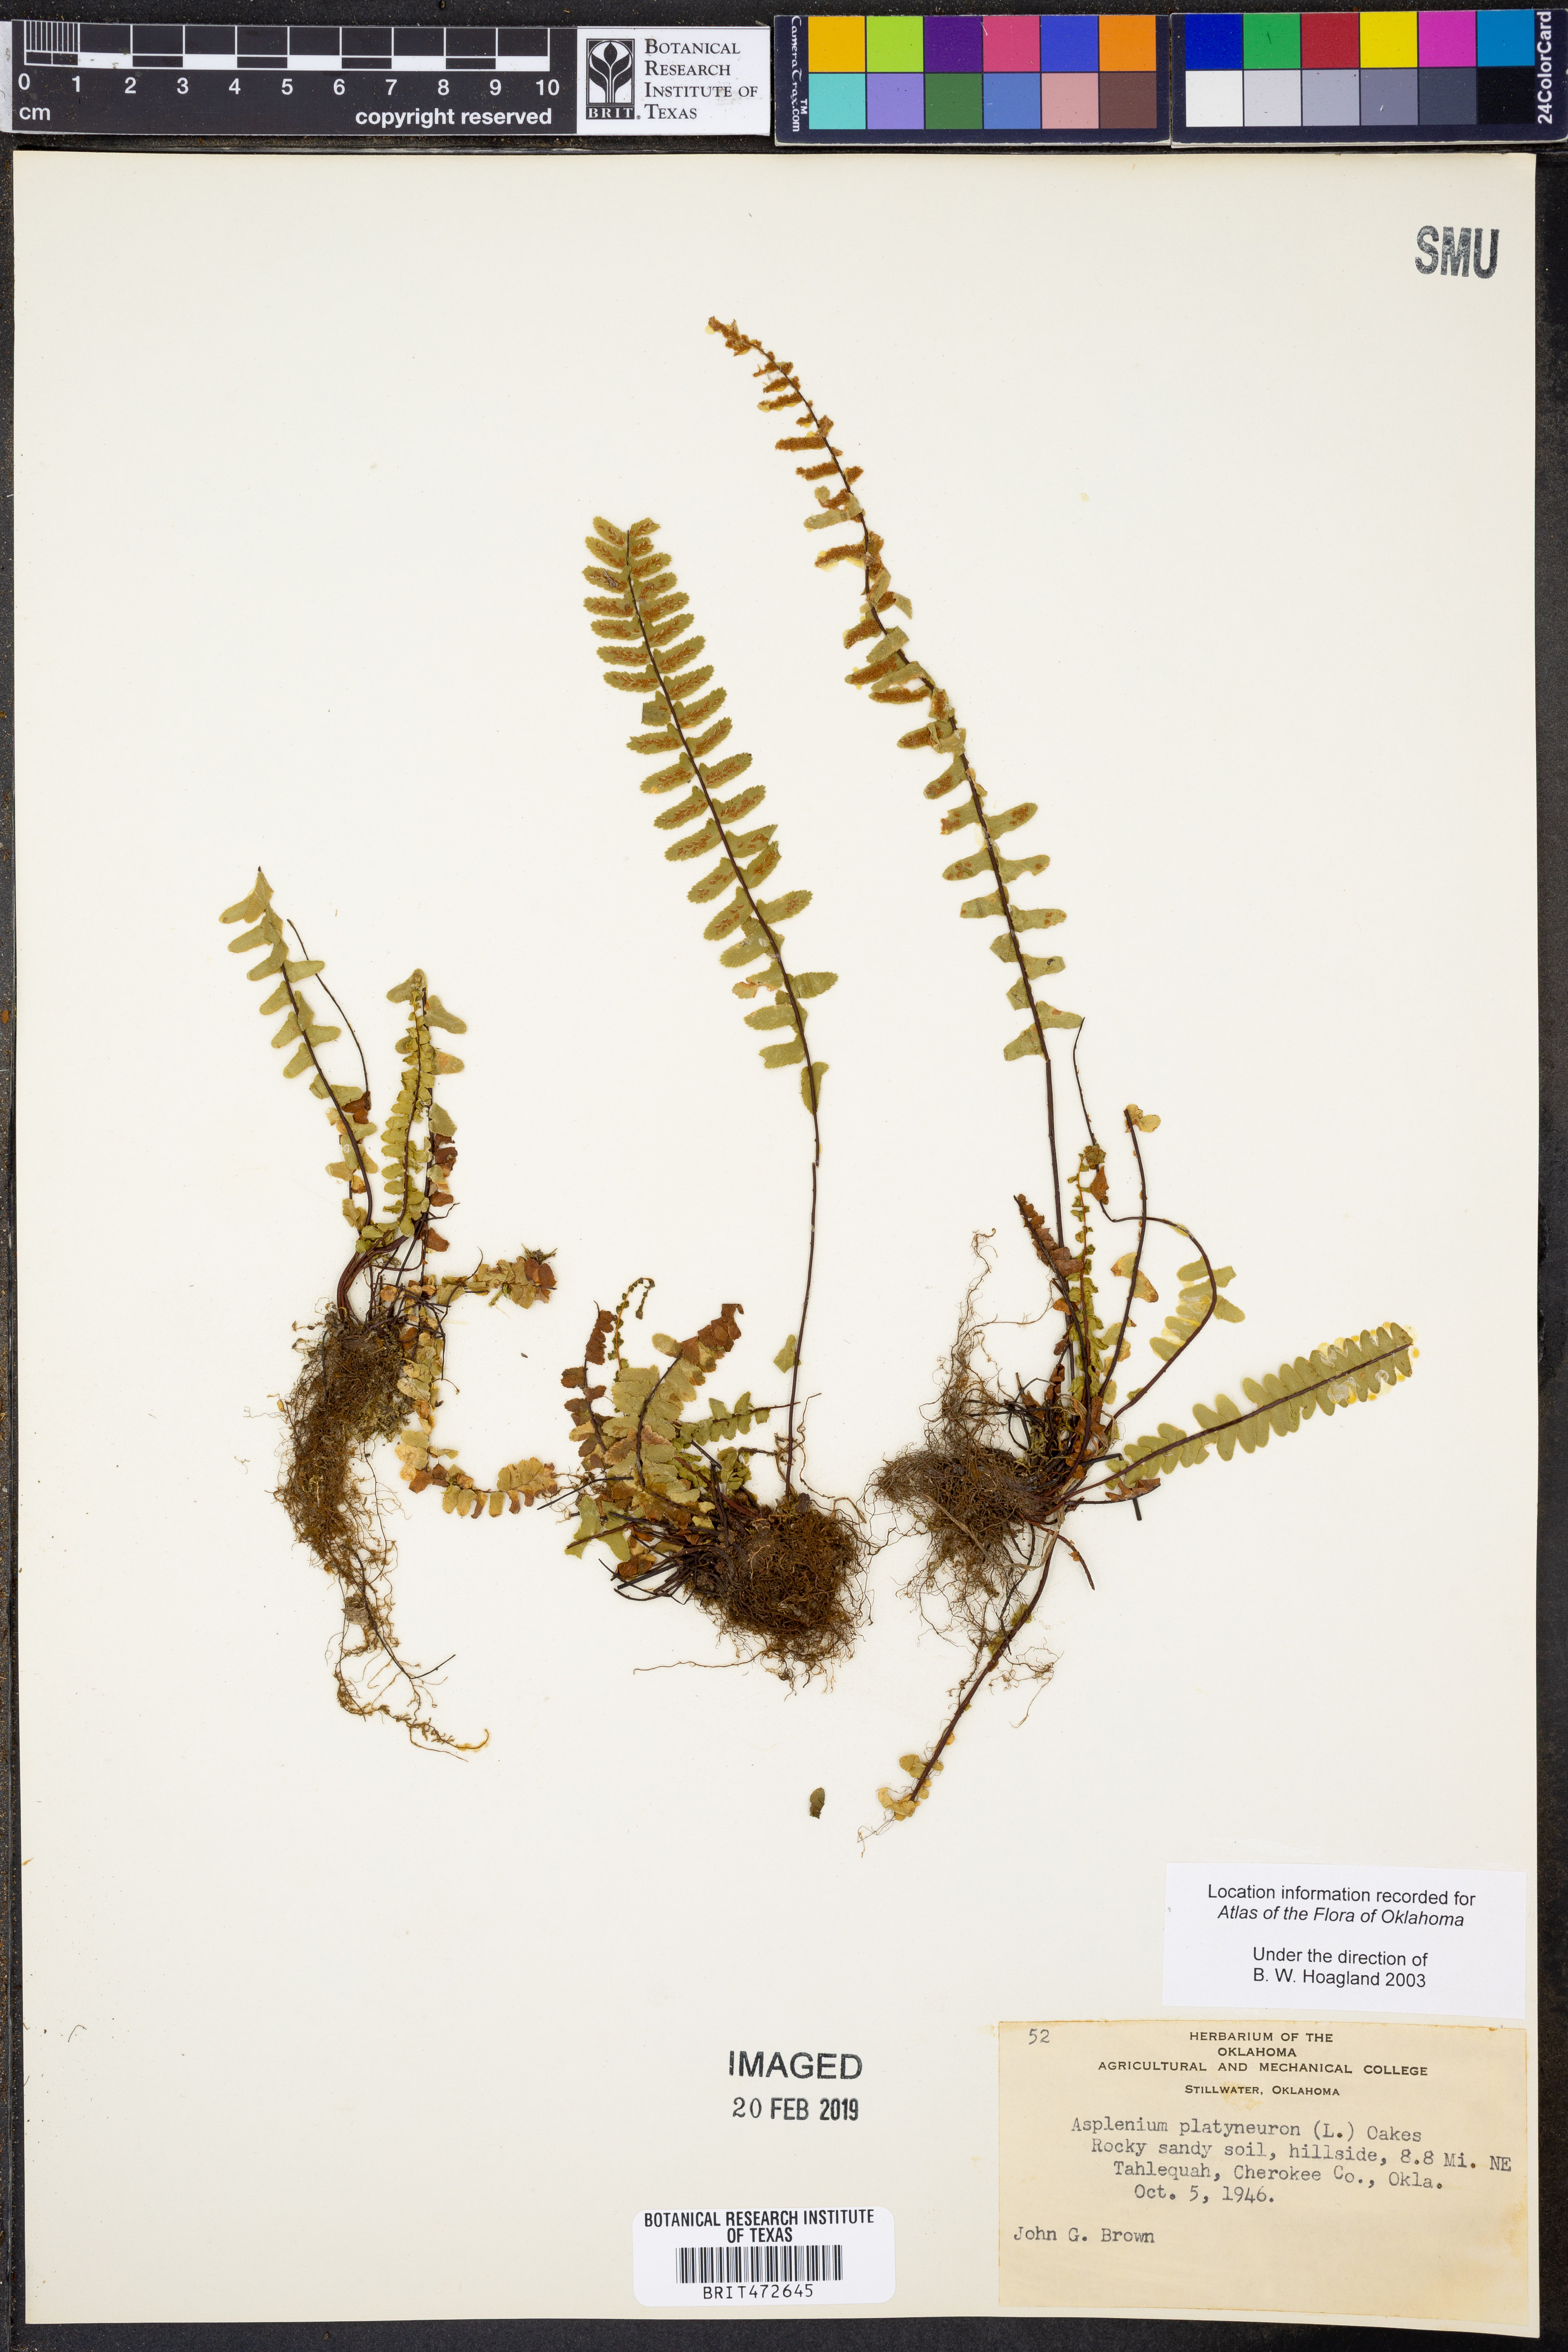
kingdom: Plantae
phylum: Tracheophyta
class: Polypodiopsida
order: Polypodiales
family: Aspleniaceae
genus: Asplenium
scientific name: Asplenium platyneuron
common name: Ebony spleenwort
